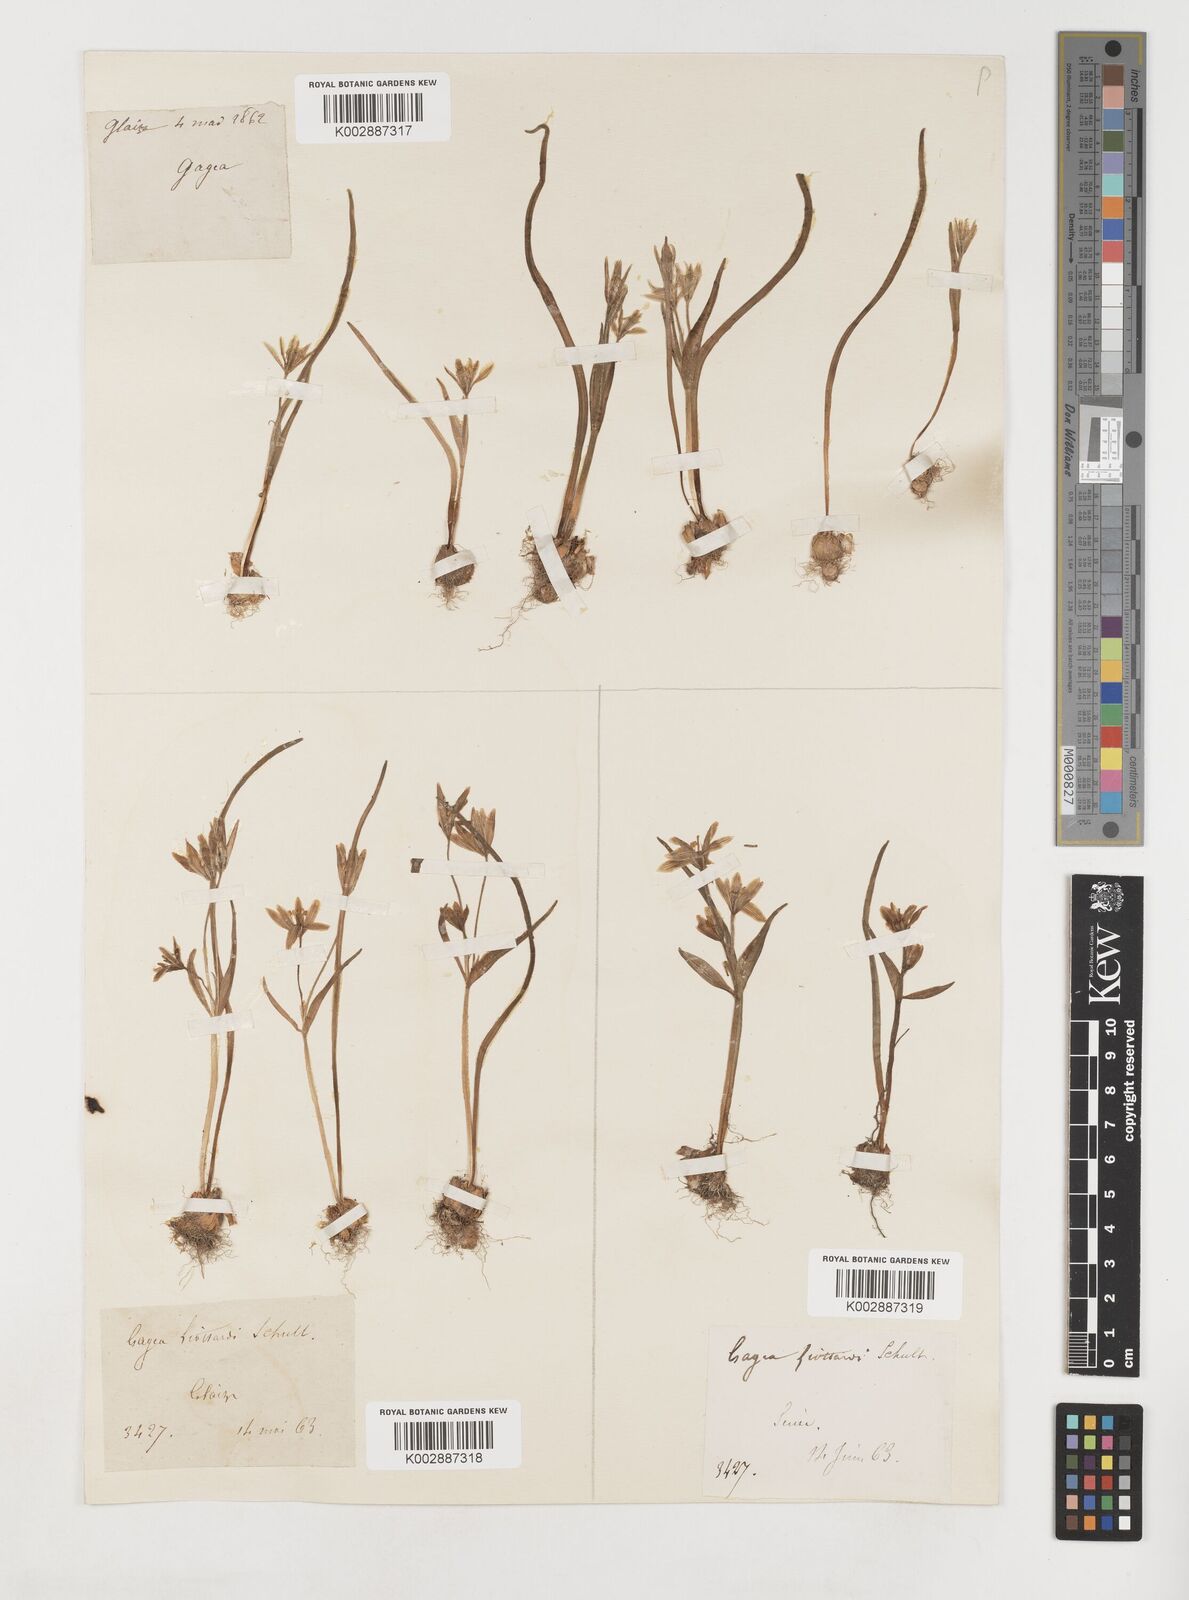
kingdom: Plantae
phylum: Tracheophyta
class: Liliopsida
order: Liliales
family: Liliaceae
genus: Gagea
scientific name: Gagea bohemica
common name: Early star-of-bethlehem
